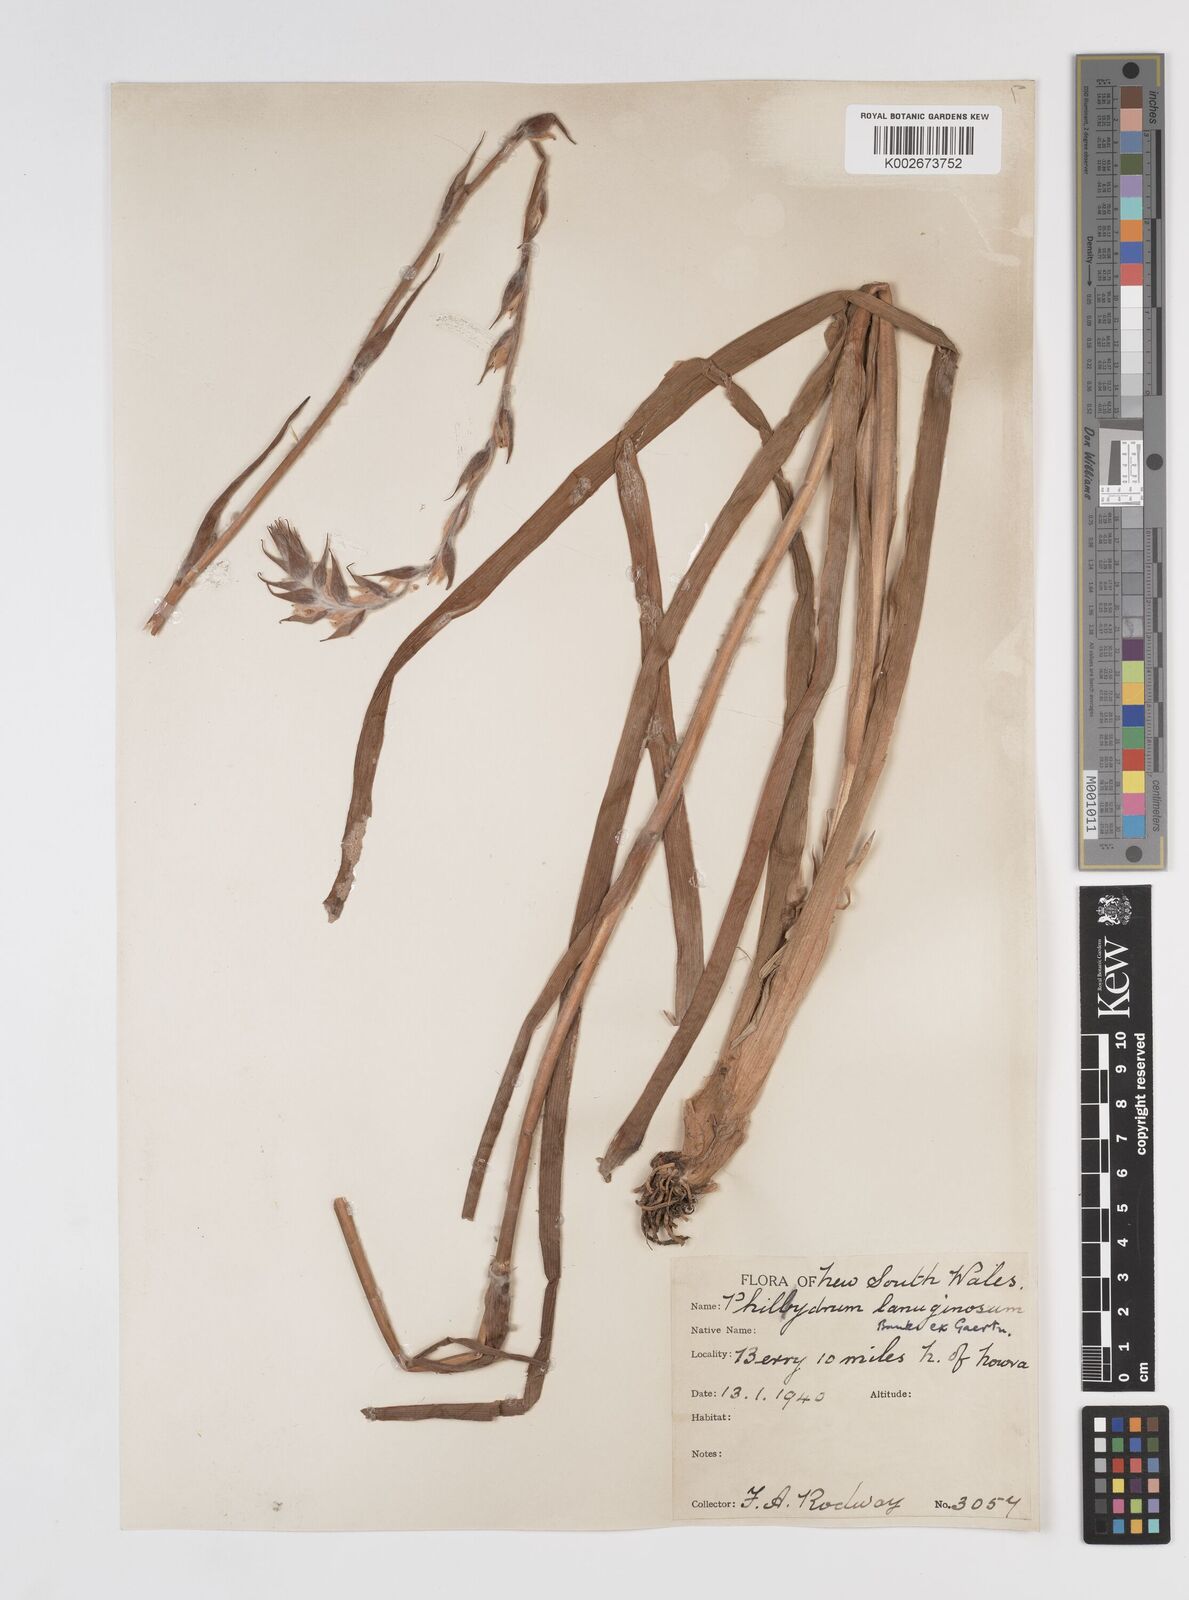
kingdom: Plantae
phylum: Tracheophyta
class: Liliopsida
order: Commelinales
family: Philydraceae
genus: Philydrum
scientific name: Philydrum lanuginosum
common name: Woolly frog's mouth
